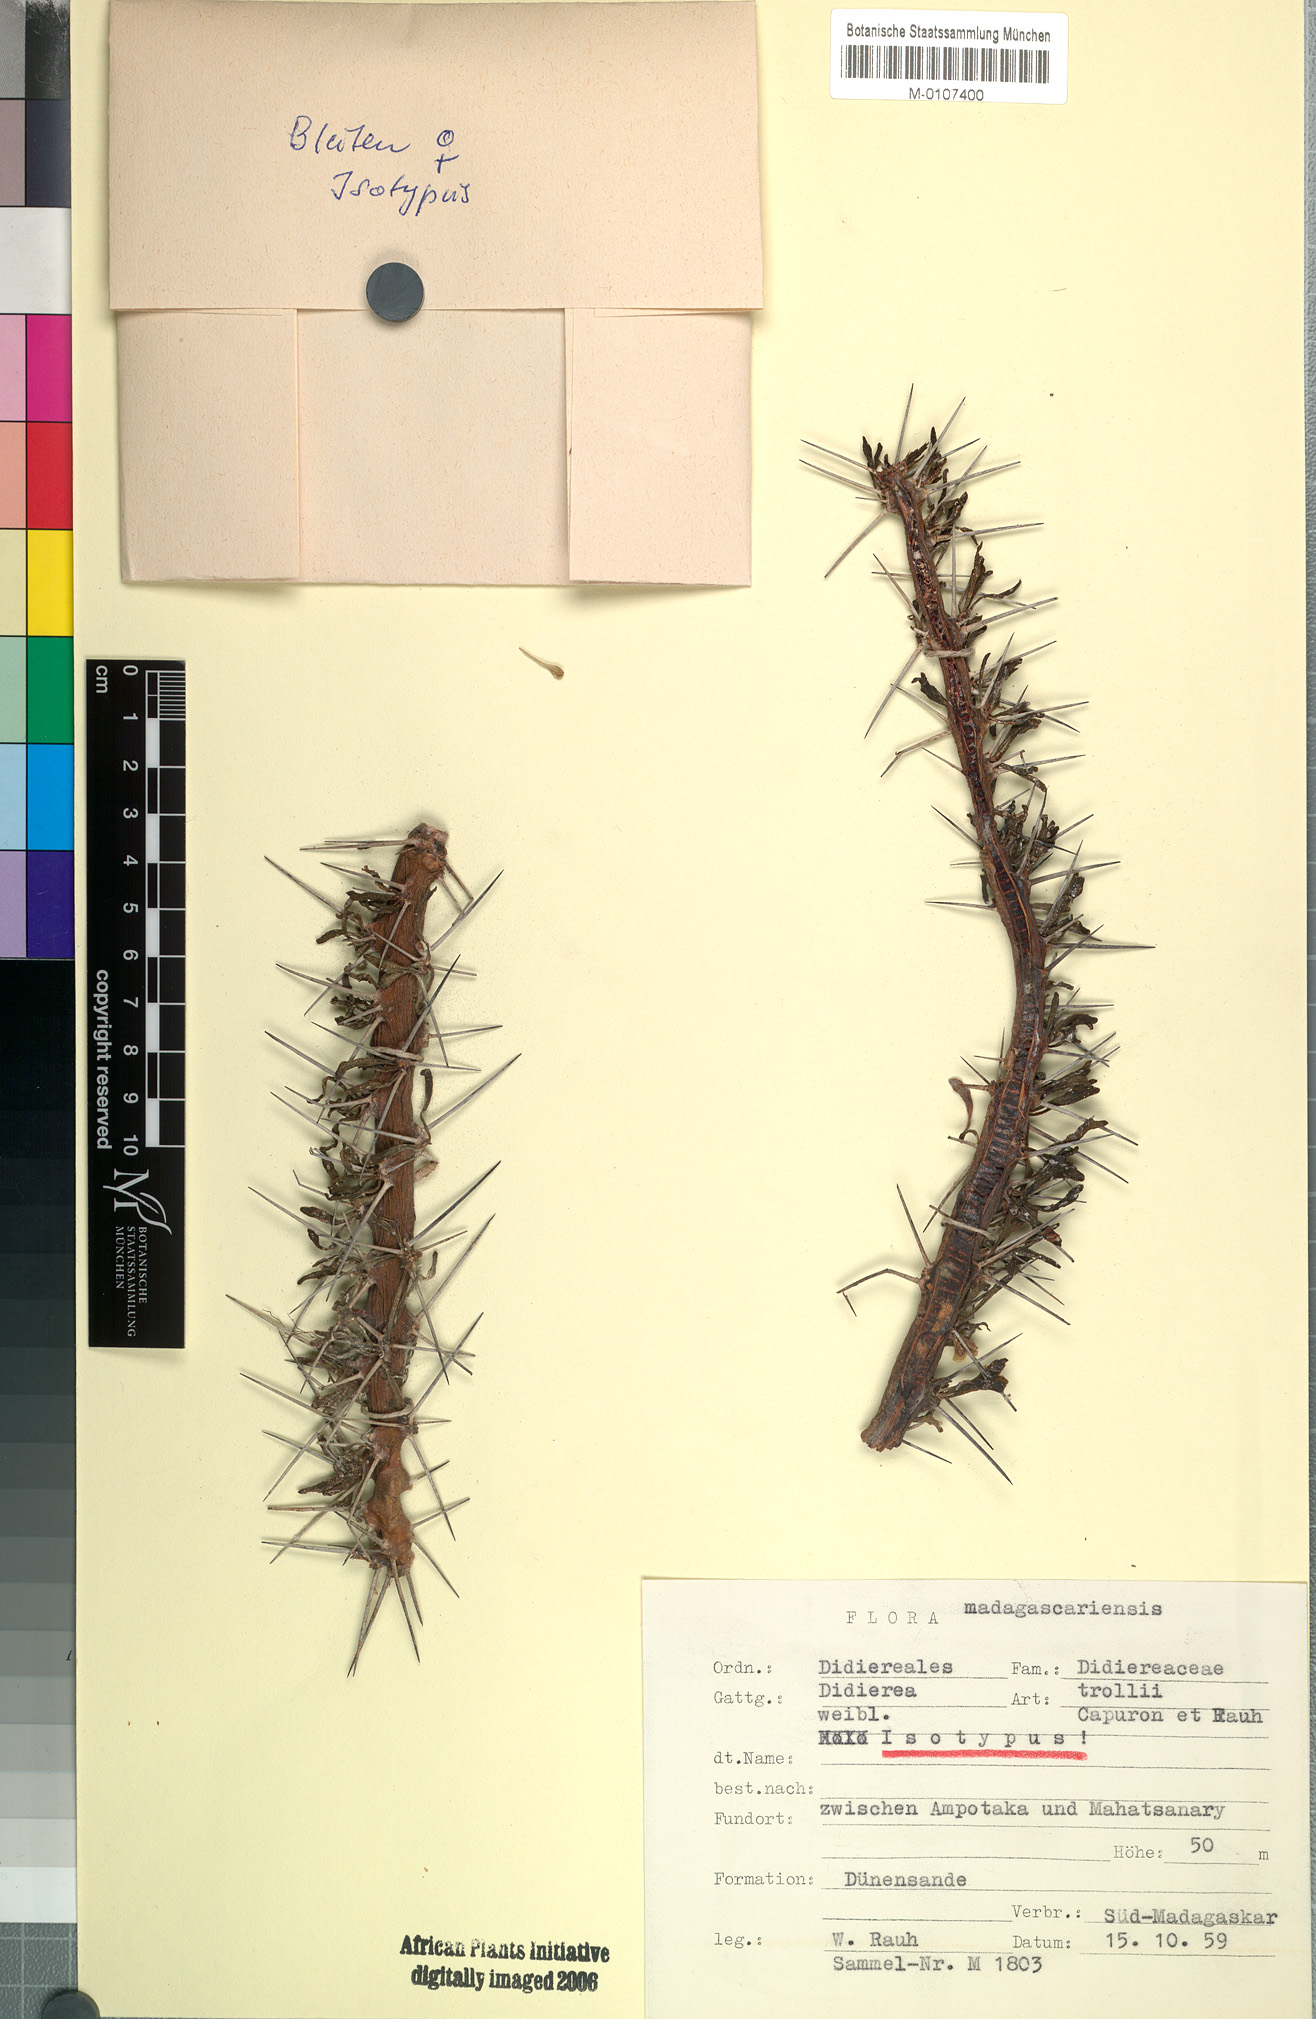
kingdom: Plantae
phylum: Tracheophyta
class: Magnoliopsida
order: Caryophyllales
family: Didiereaceae
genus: Didierea
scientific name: Didierea trollii
